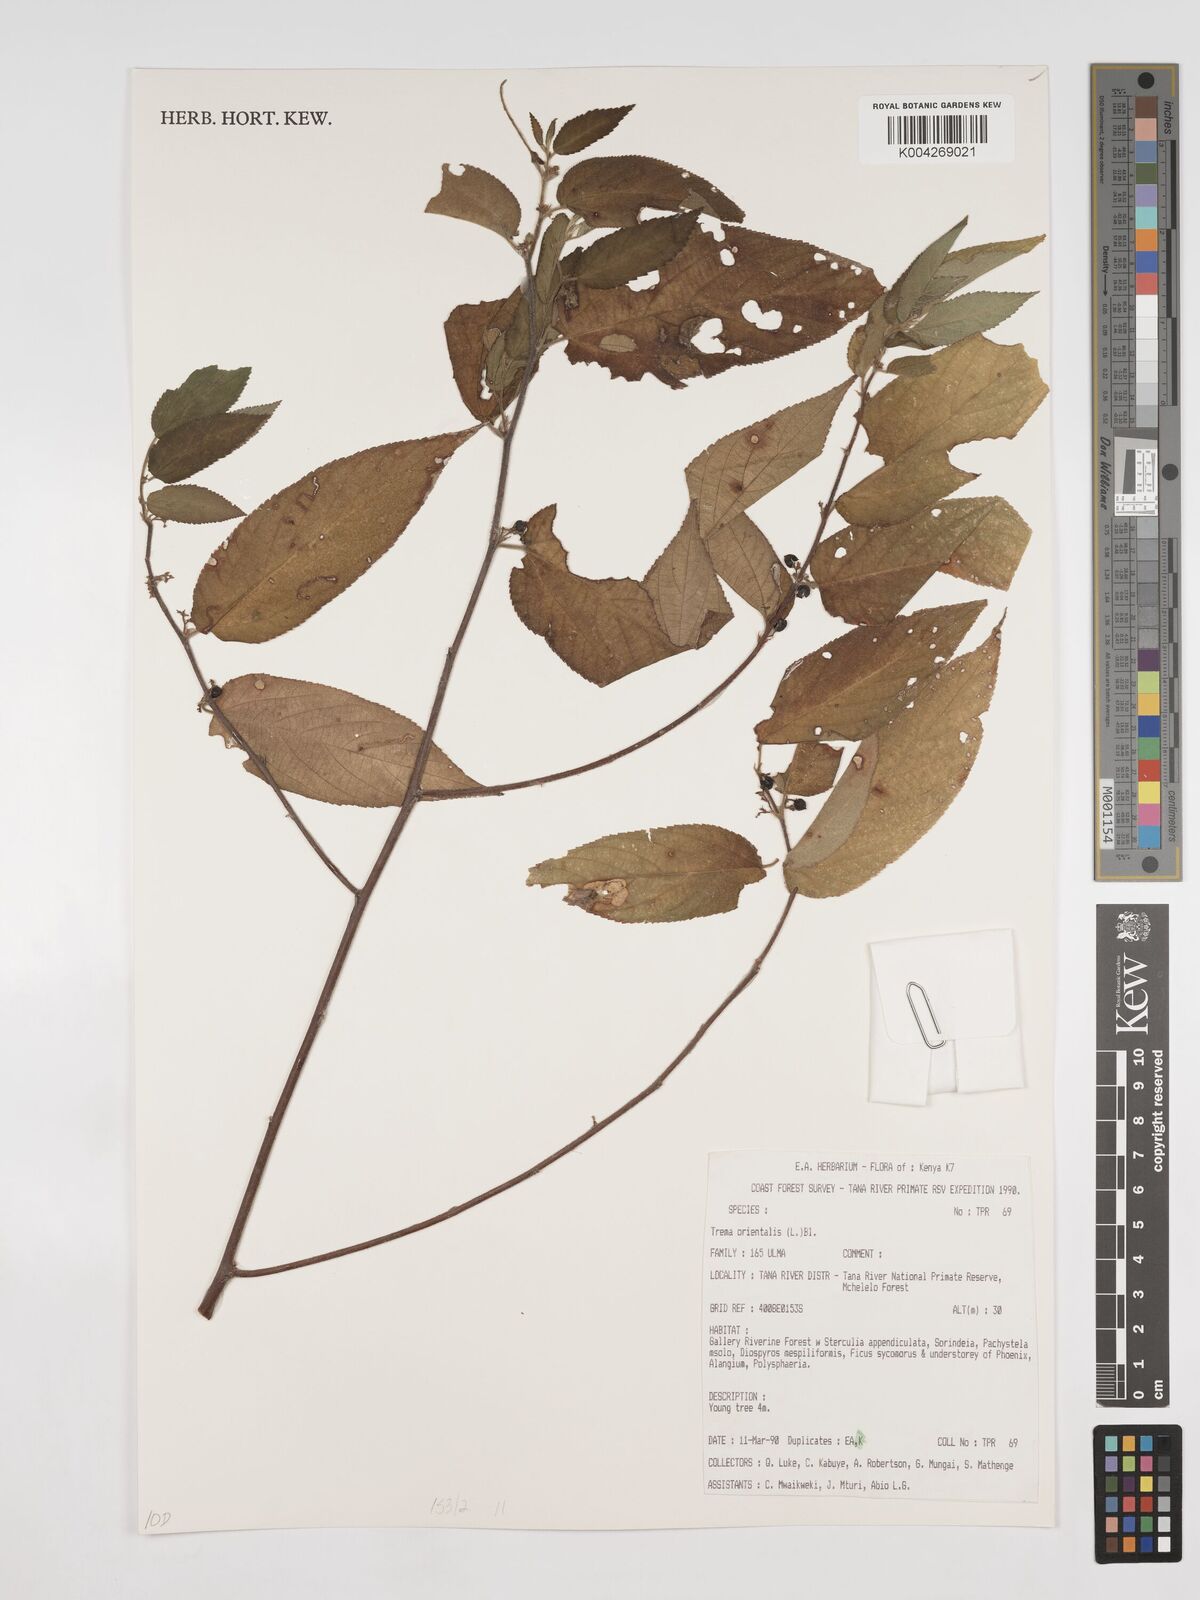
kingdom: Plantae
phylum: Tracheophyta
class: Magnoliopsida
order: Rosales
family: Cannabaceae
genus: Trema
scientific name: Trema orientale
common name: Indian charcoal tree
